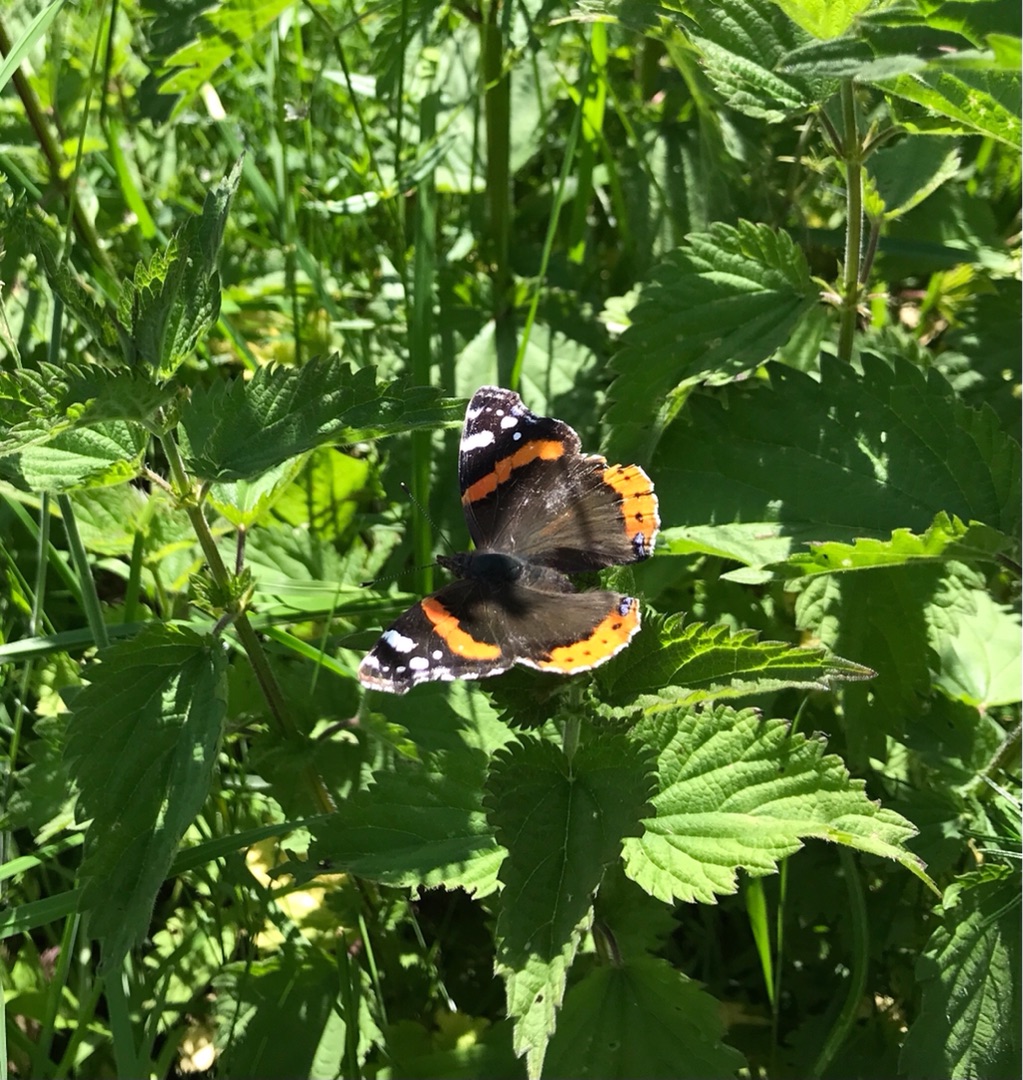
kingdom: Animalia
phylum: Arthropoda
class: Insecta
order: Lepidoptera
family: Nymphalidae
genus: Vanessa
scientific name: Vanessa atalanta
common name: Admiral
